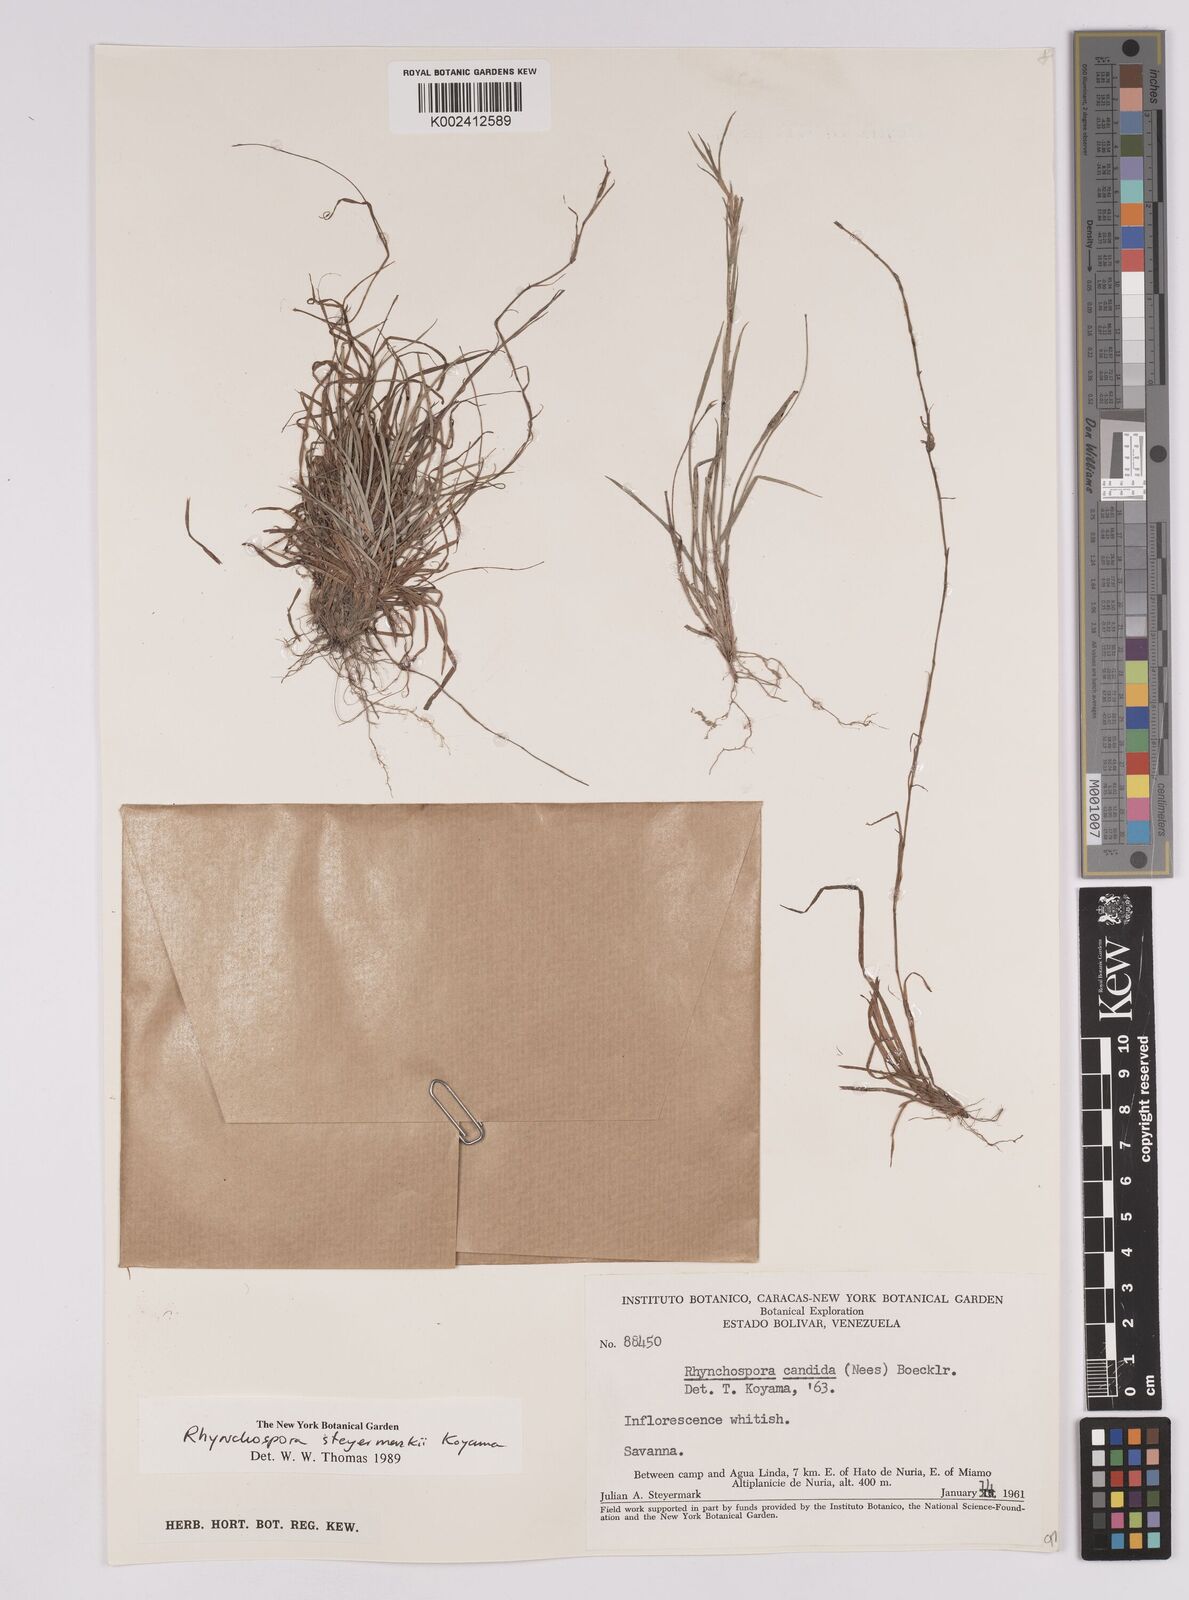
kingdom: Plantae
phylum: Tracheophyta
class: Liliopsida
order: Poales
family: Cyperaceae
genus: Rhynchospora
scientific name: Rhynchospora steyermarkii
